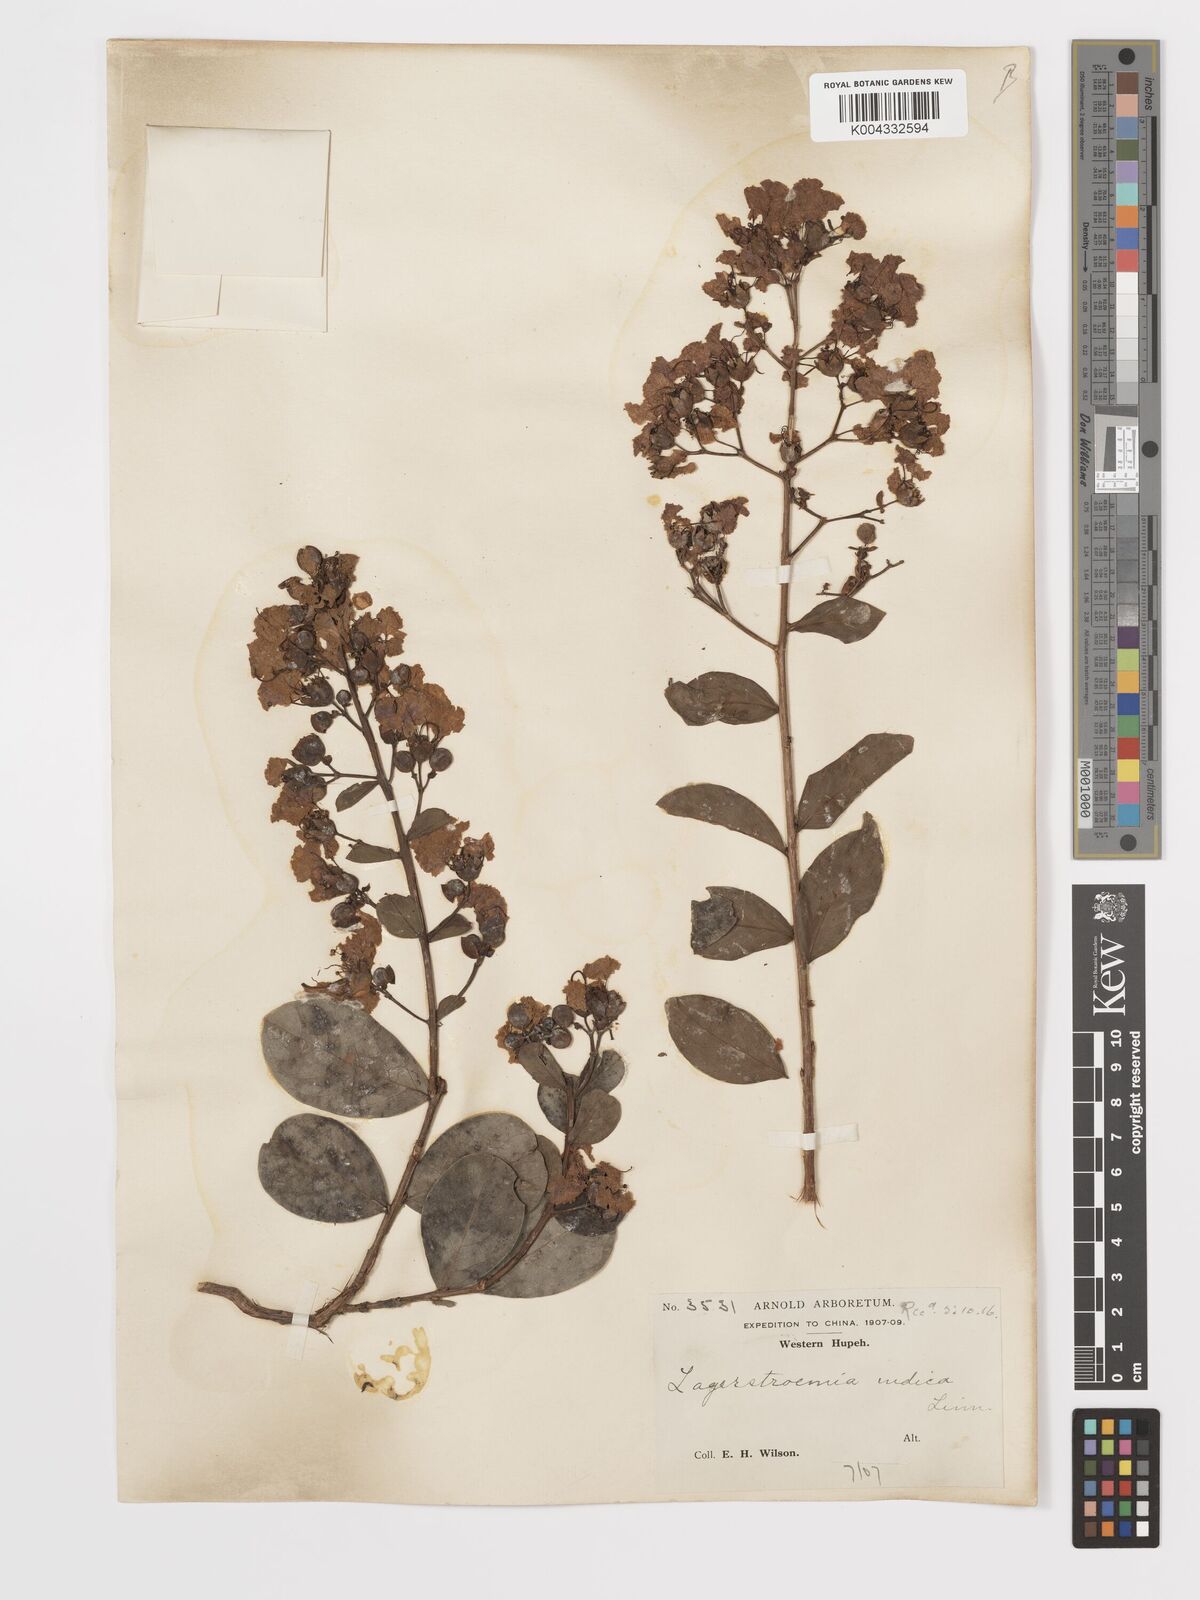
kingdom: Plantae
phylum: Tracheophyta
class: Magnoliopsida
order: Myrtales
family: Lythraceae
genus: Lagerstroemia
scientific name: Lagerstroemia indica
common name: Crape-myrtle
